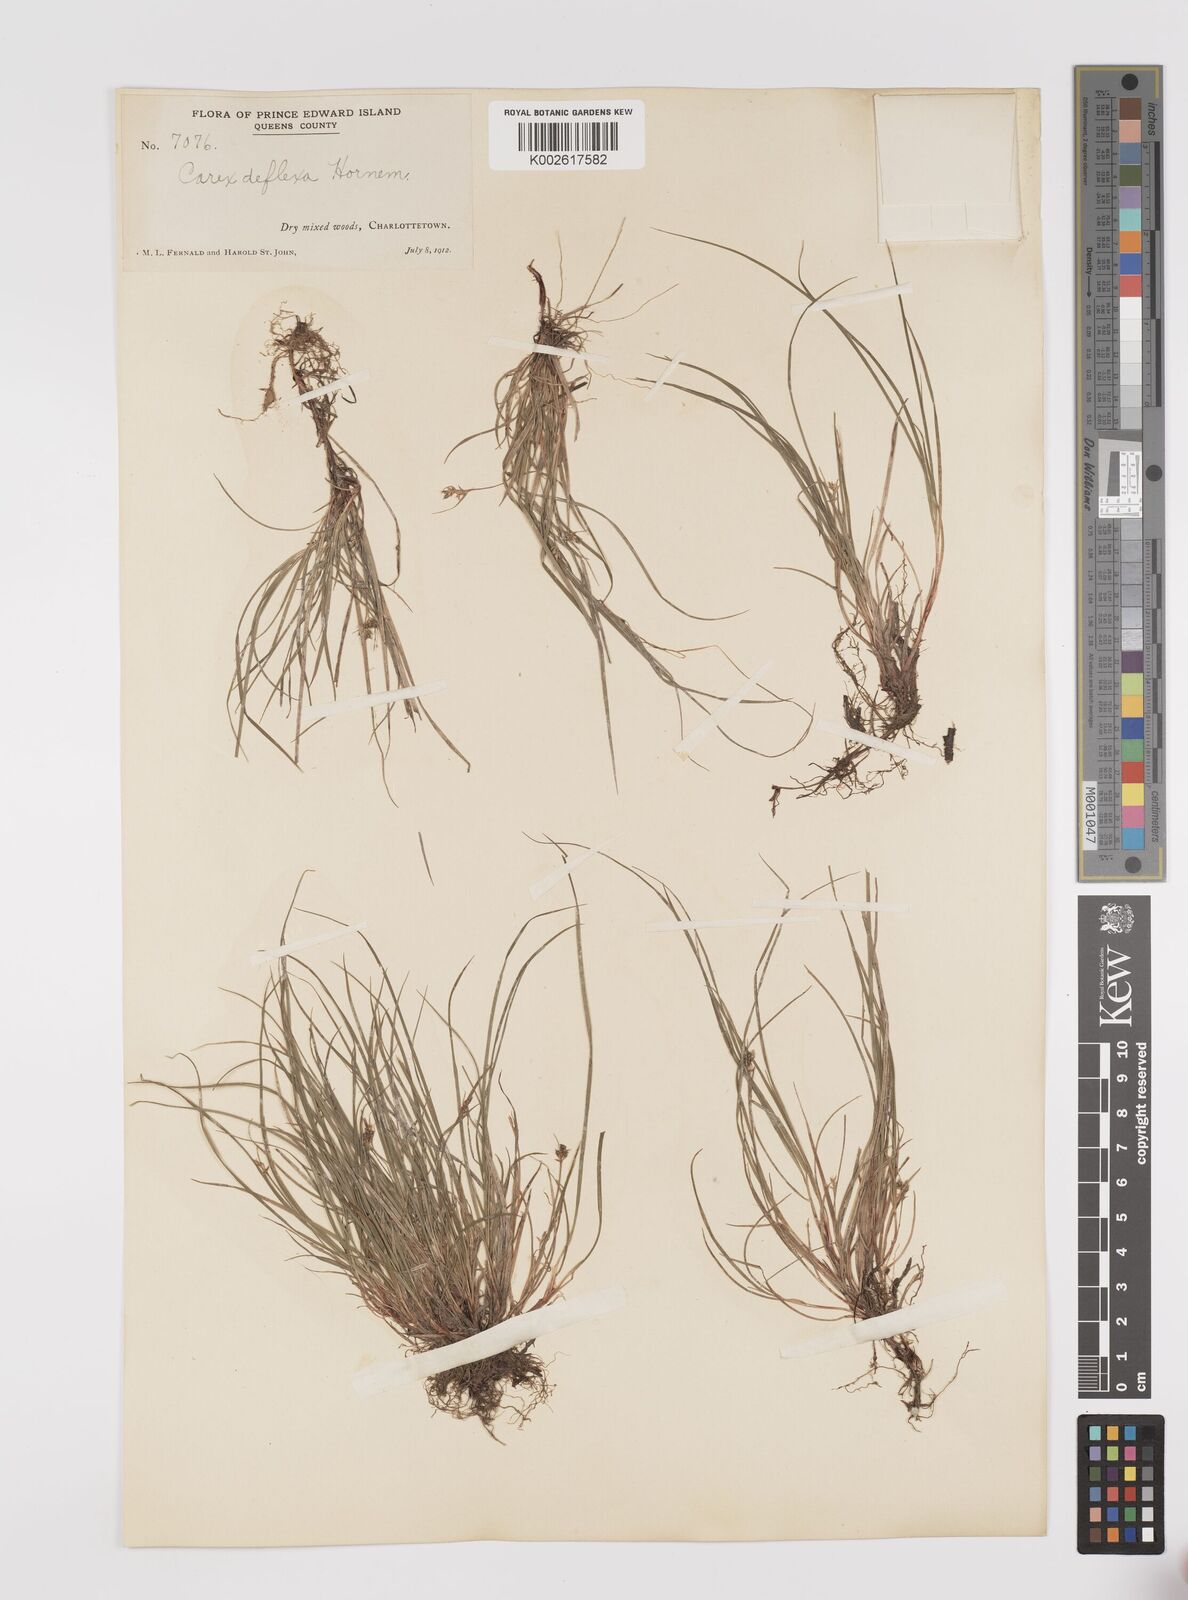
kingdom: Plantae
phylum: Tracheophyta
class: Liliopsida
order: Poales
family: Cyperaceae
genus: Carex
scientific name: Carex deflexa
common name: Bent northern sedge
